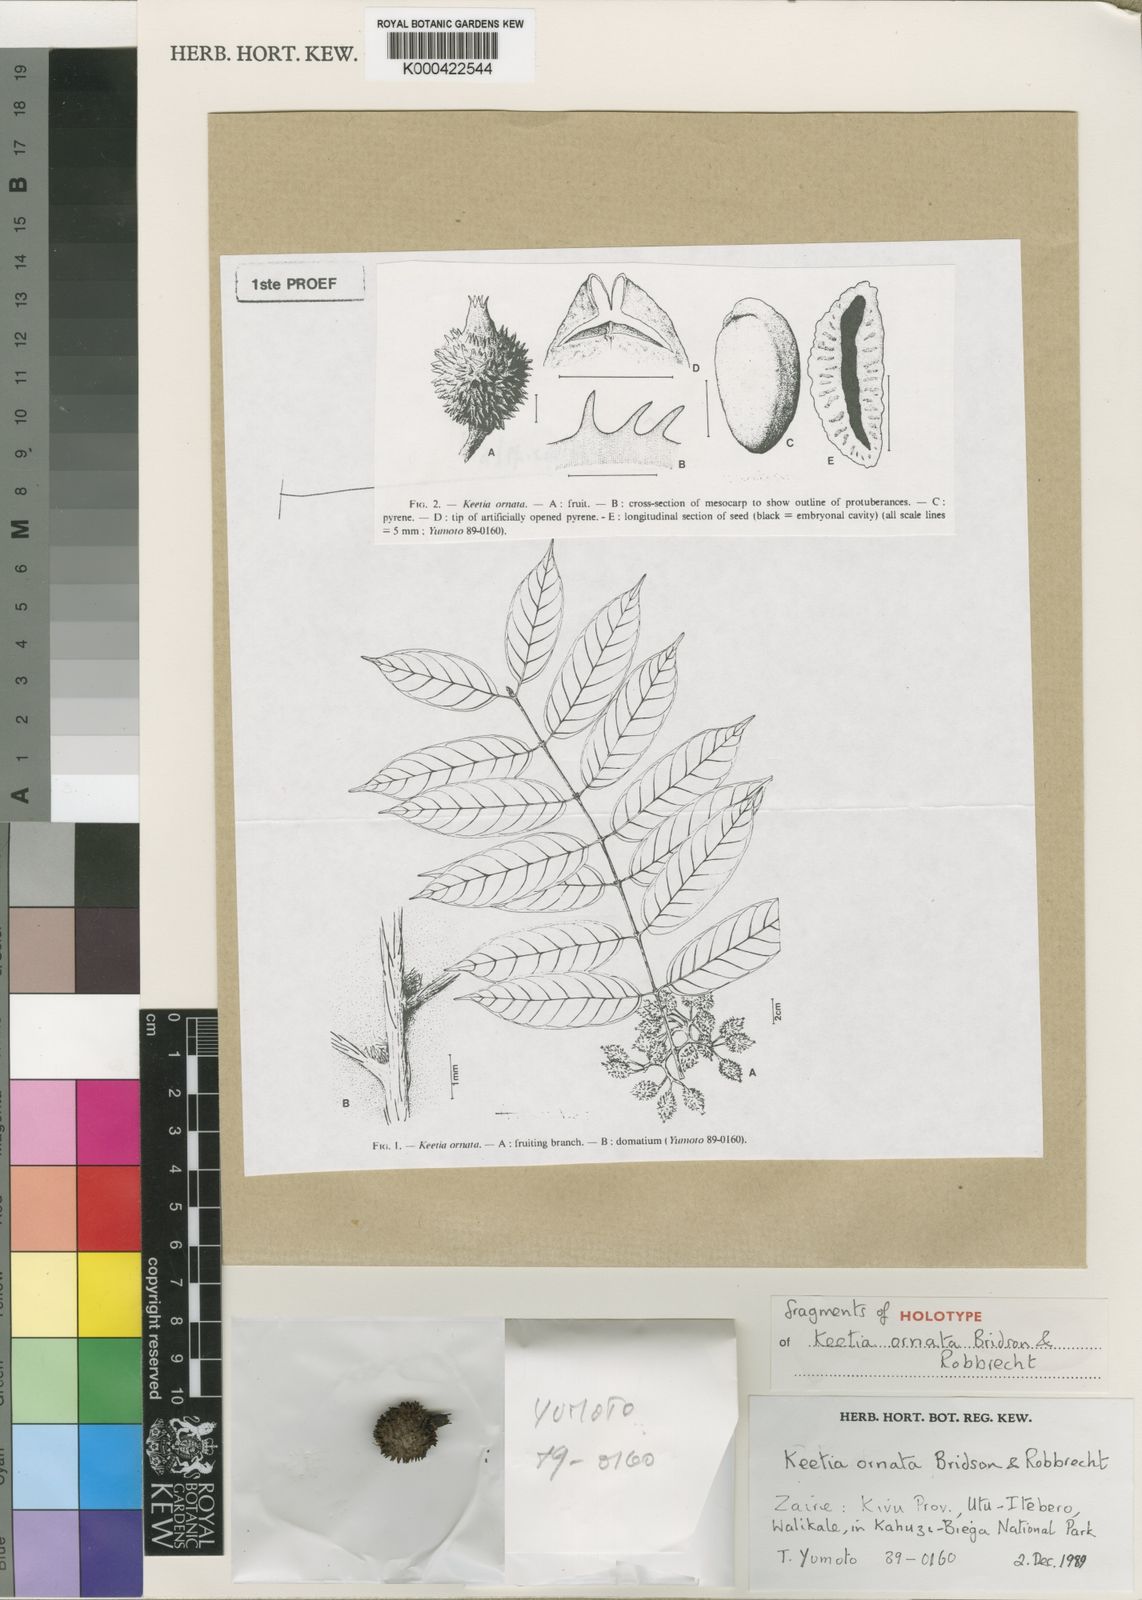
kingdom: Plantae
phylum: Tracheophyta
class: Magnoliopsida
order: Gentianales
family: Rubiaceae
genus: Keetia
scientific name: Keetia ornata
